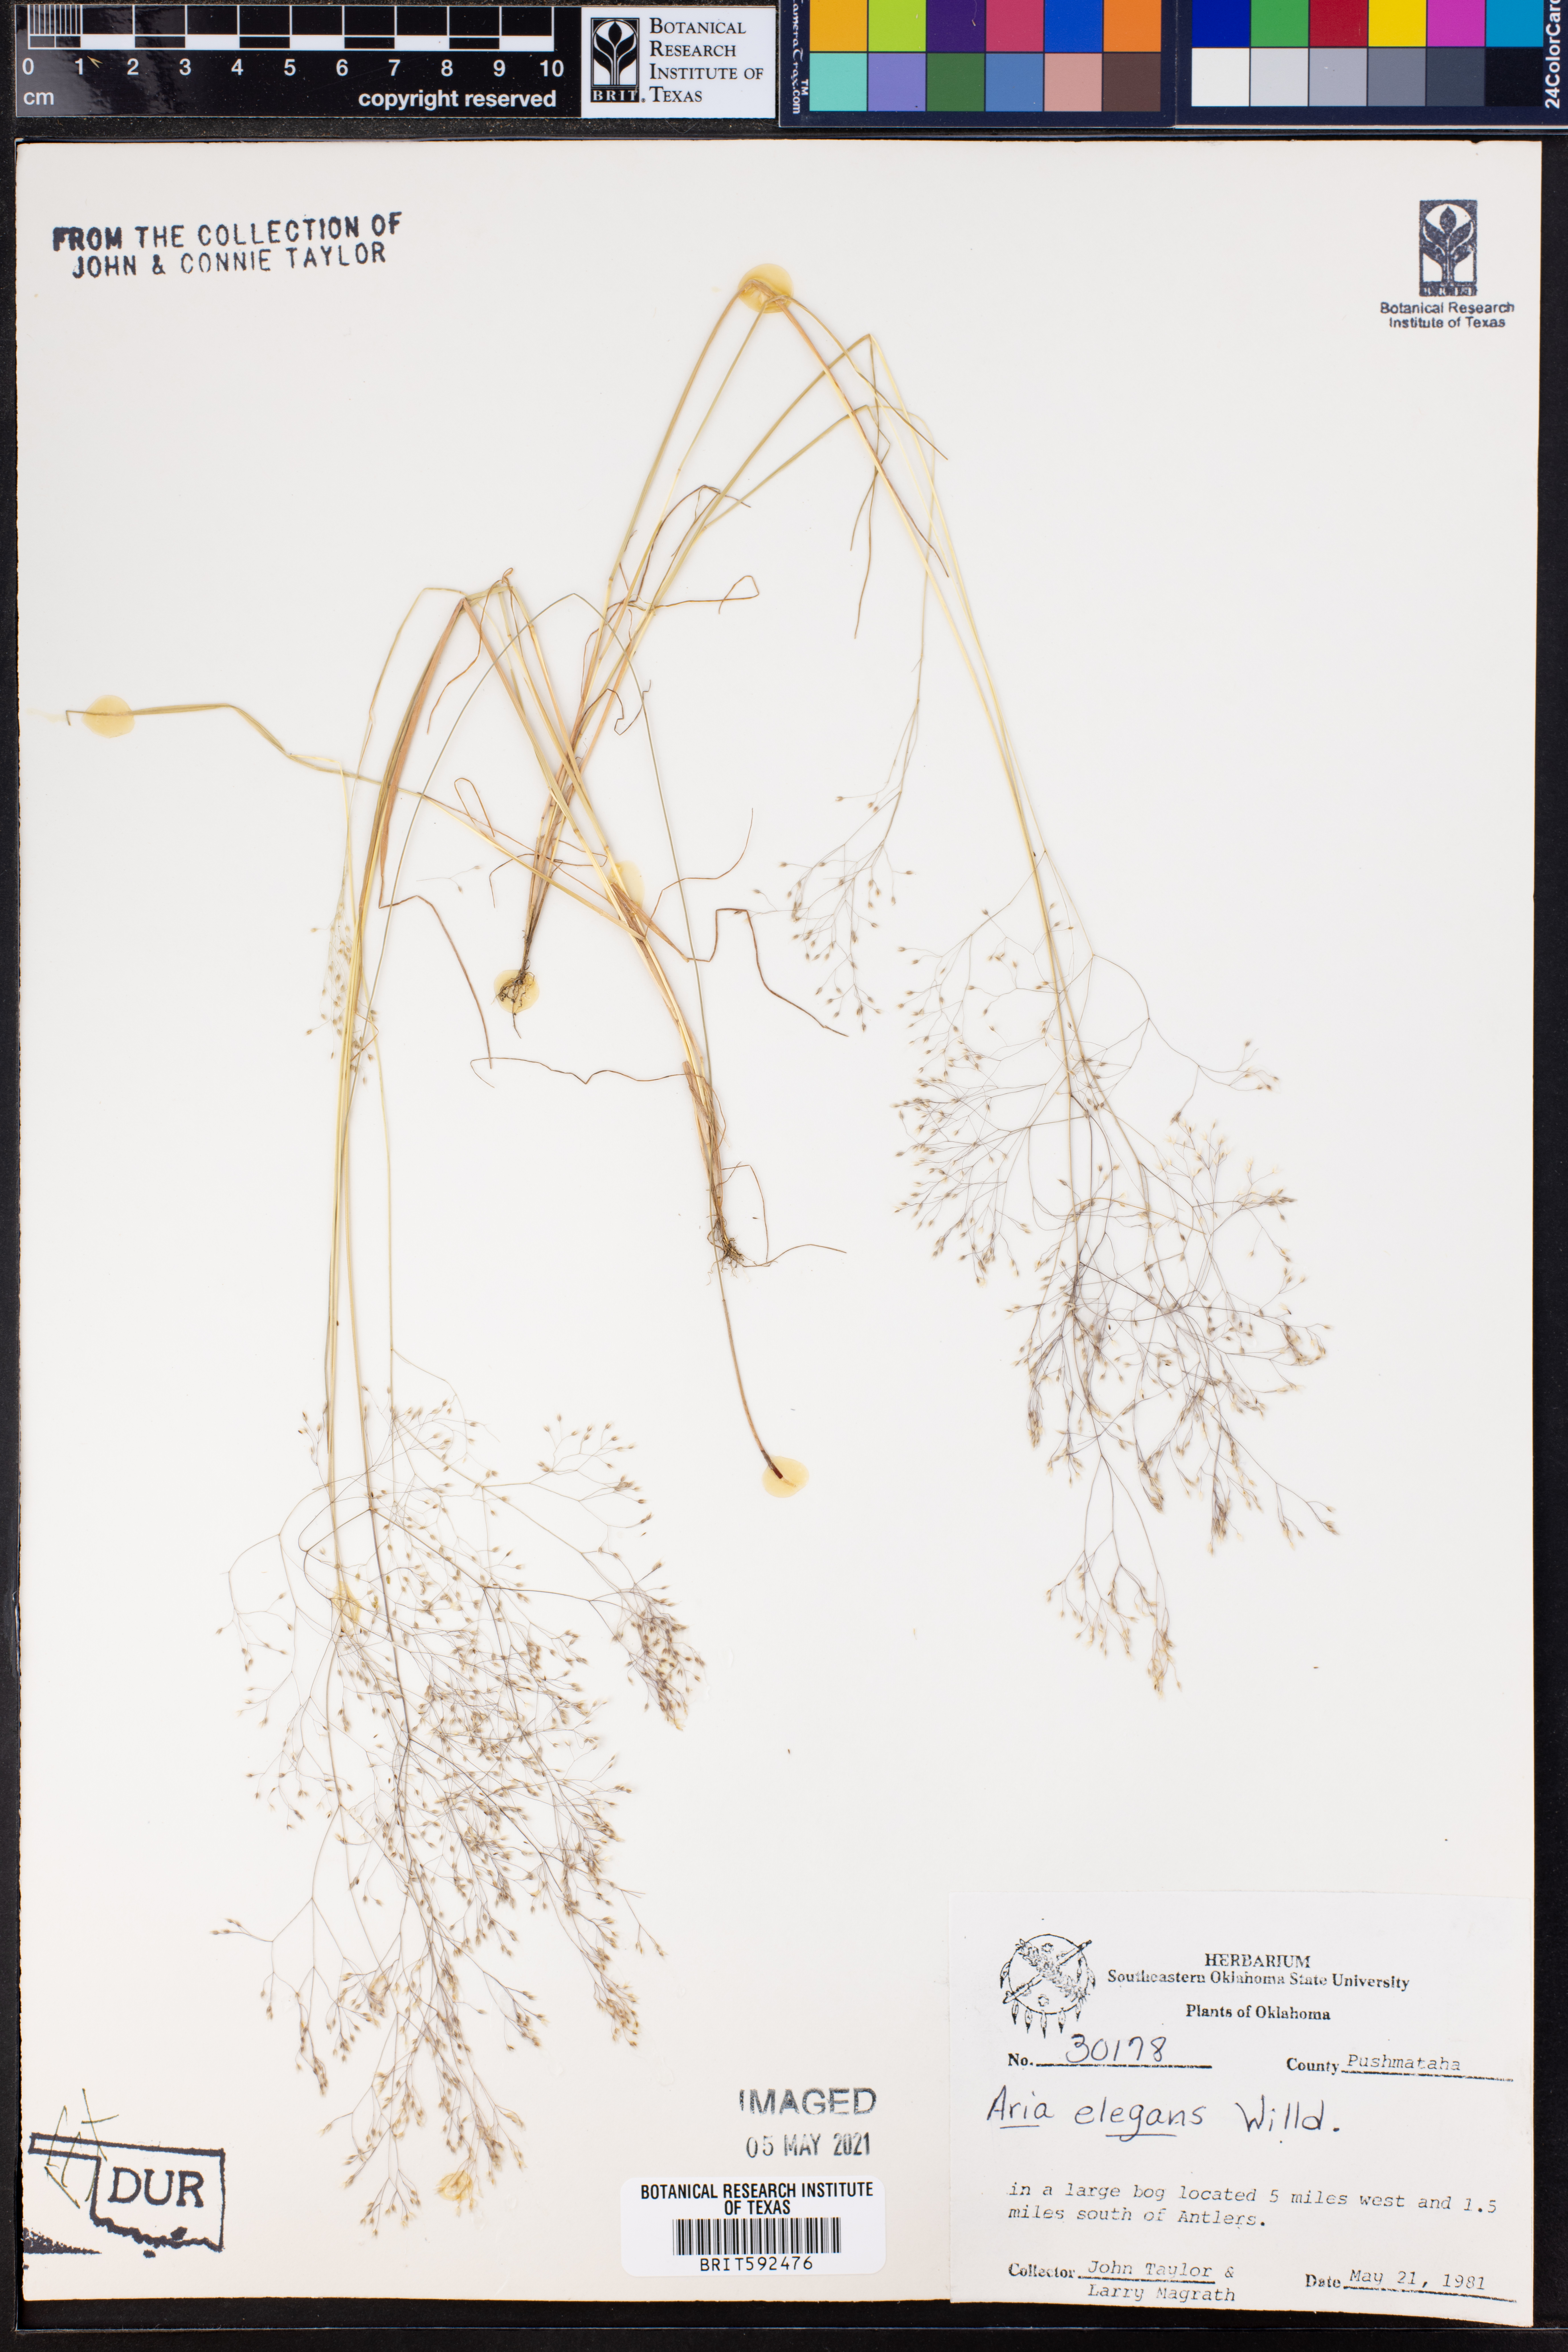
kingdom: Plantae
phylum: Tracheophyta
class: Liliopsida
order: Poales
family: Poaceae
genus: Aira
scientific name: Aira elegans
